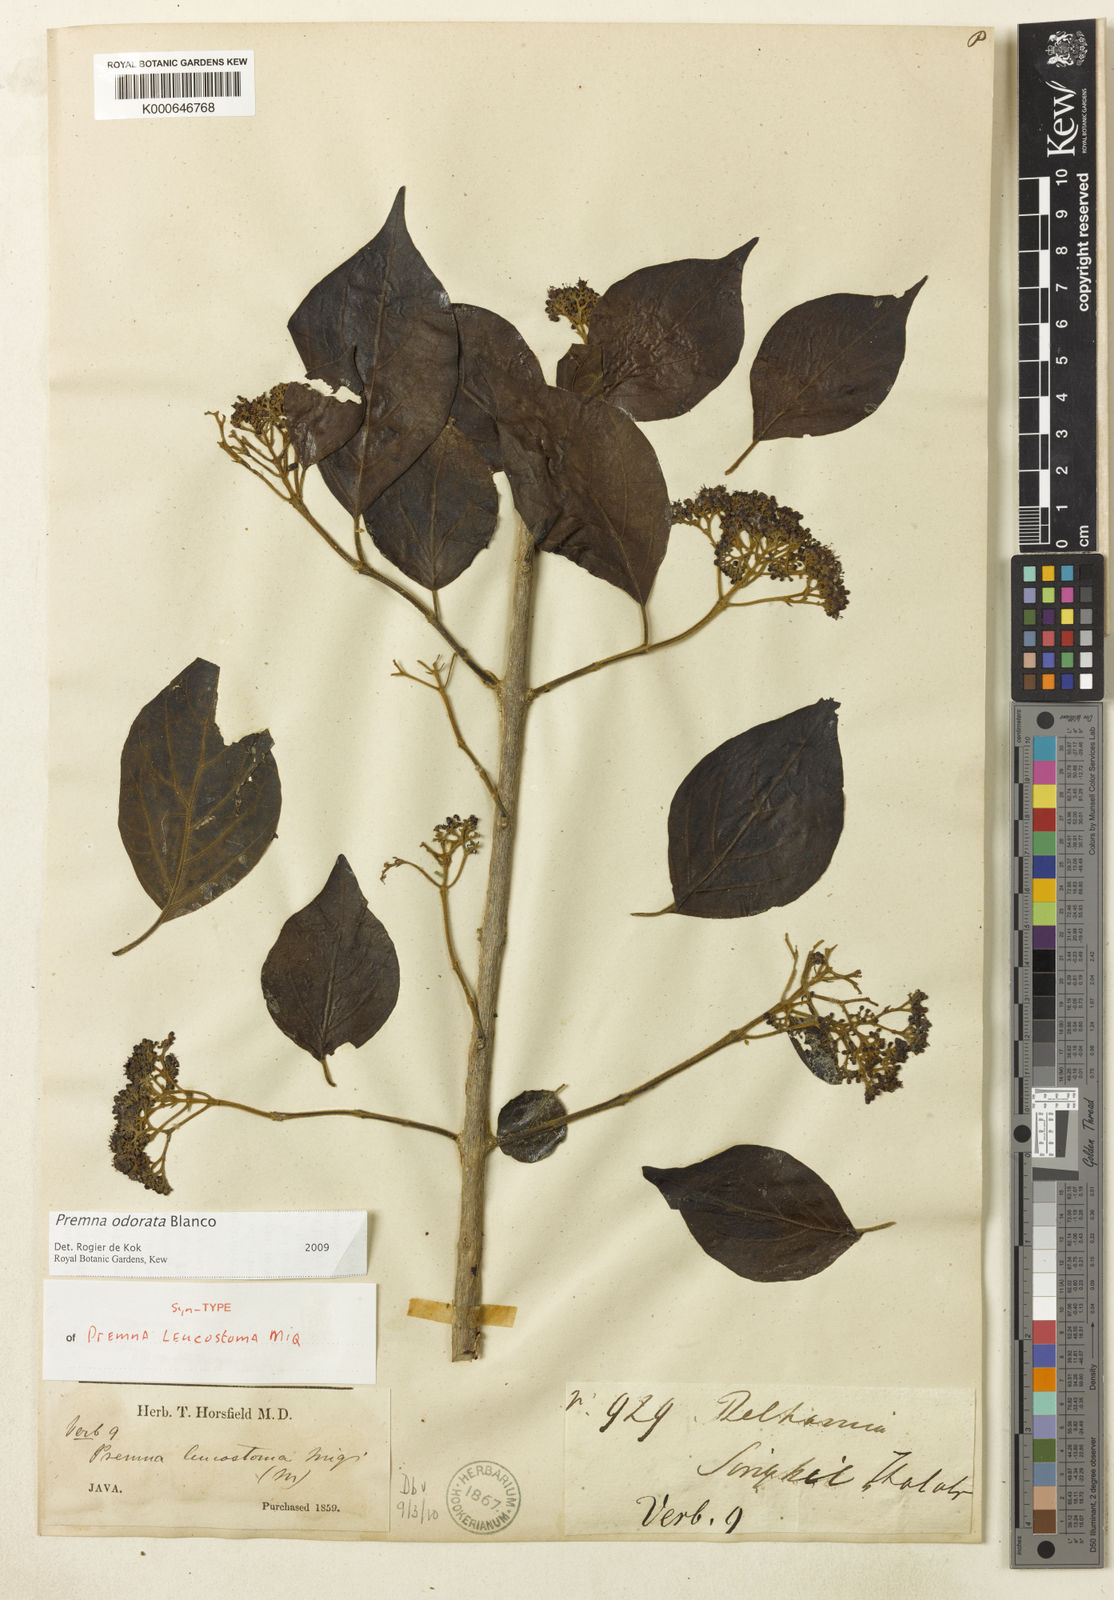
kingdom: Plantae
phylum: Tracheophyta
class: Magnoliopsida
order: Lamiales
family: Lamiaceae
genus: Premna
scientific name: Premna odorata
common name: Fragrant premna
